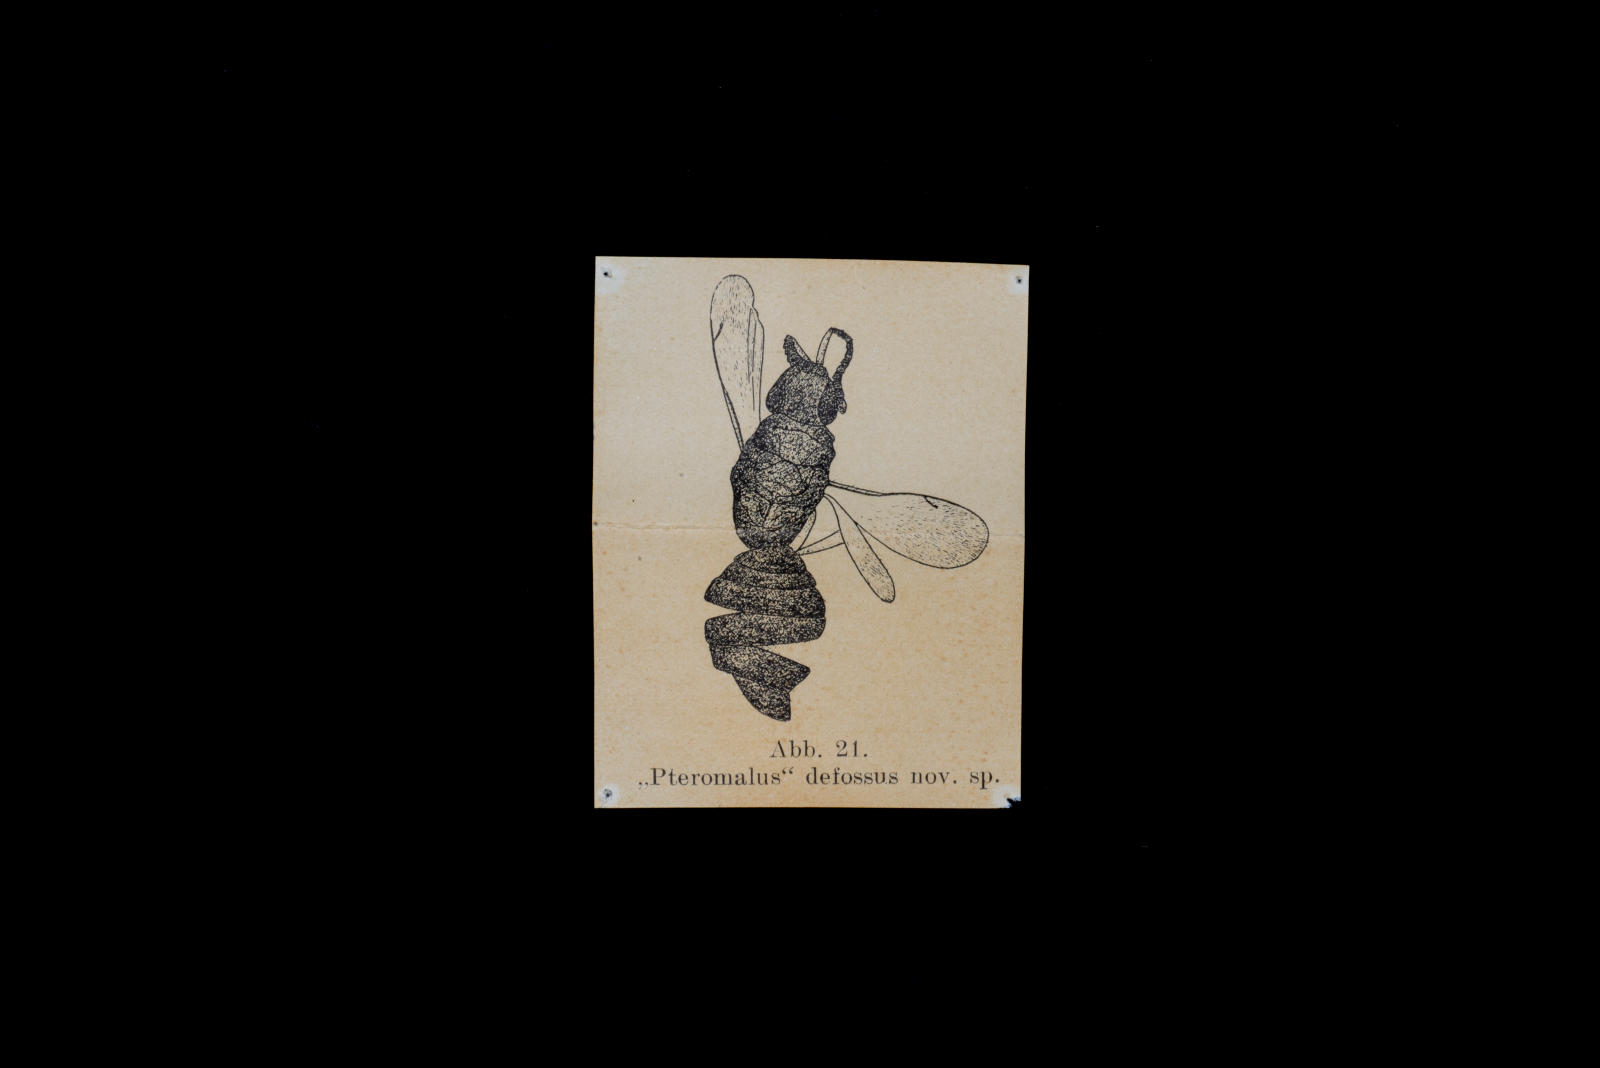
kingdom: Animalia
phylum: Arthropoda
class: Insecta
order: Hymenoptera
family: Pteromalidae
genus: Pteromalus
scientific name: Pteromalus defossus
